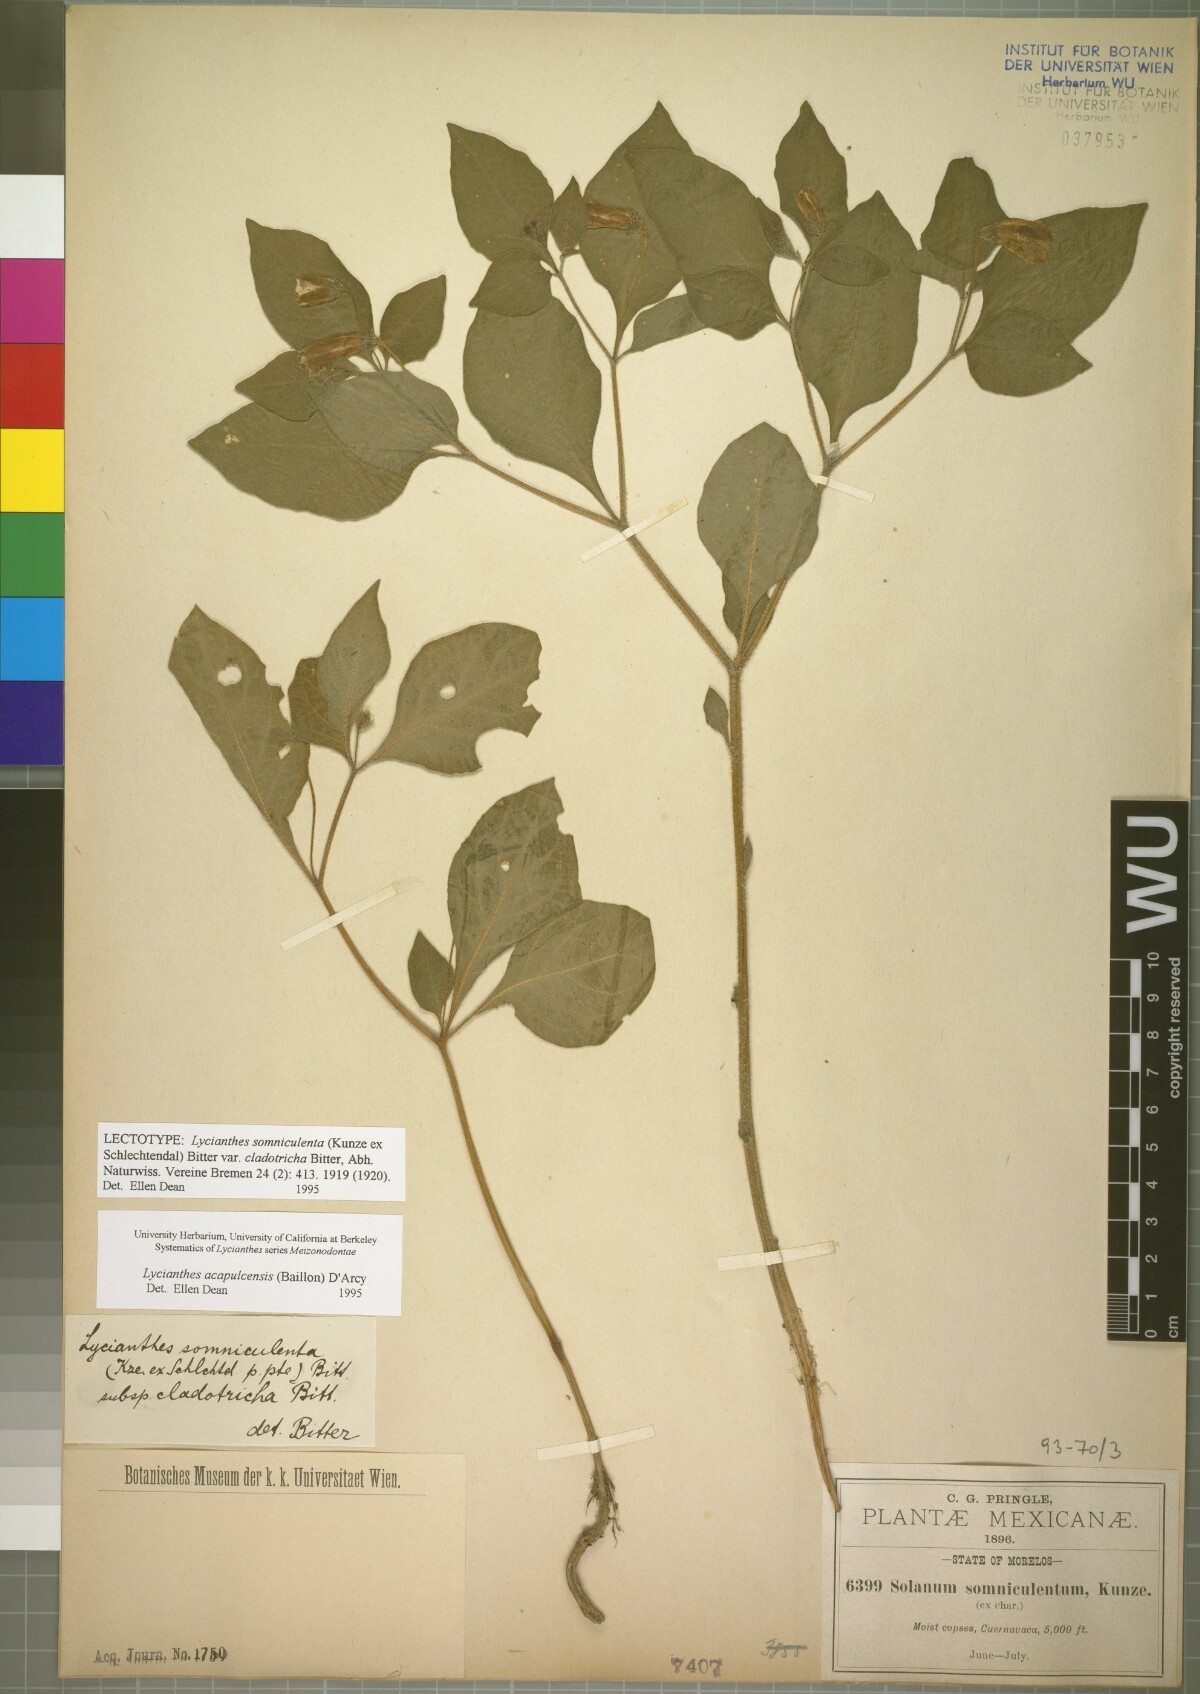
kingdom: Plantae
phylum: Tracheophyta
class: Magnoliopsida
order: Solanales
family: Solanaceae
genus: Lycianthes
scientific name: Lycianthes acapulcensis
